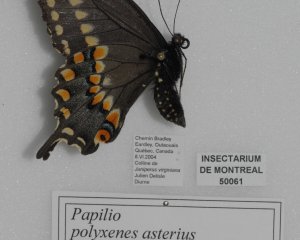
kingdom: Animalia
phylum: Arthropoda
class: Insecta
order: Lepidoptera
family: Papilionidae
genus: Papilio
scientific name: Papilio polyxenes
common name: Black Swallowtail
